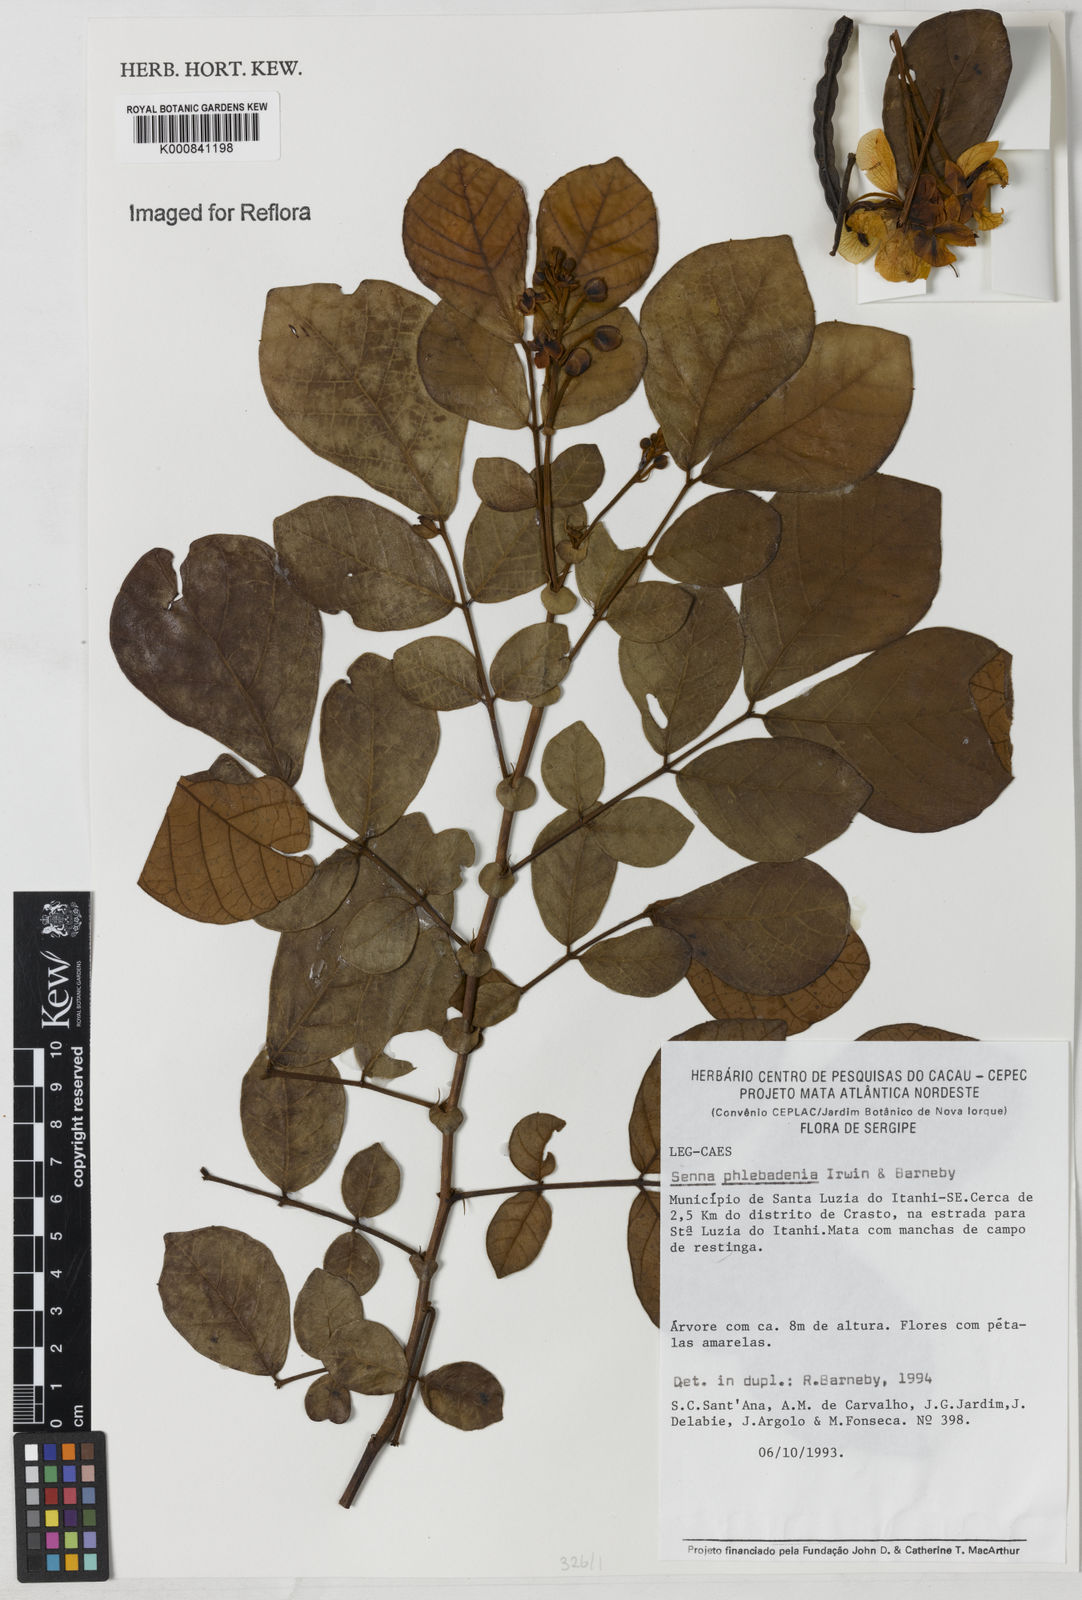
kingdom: Plantae
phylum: Tracheophyta
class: Magnoliopsida
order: Fabales
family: Fabaceae
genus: Senna
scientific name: Senna phlebadenia
